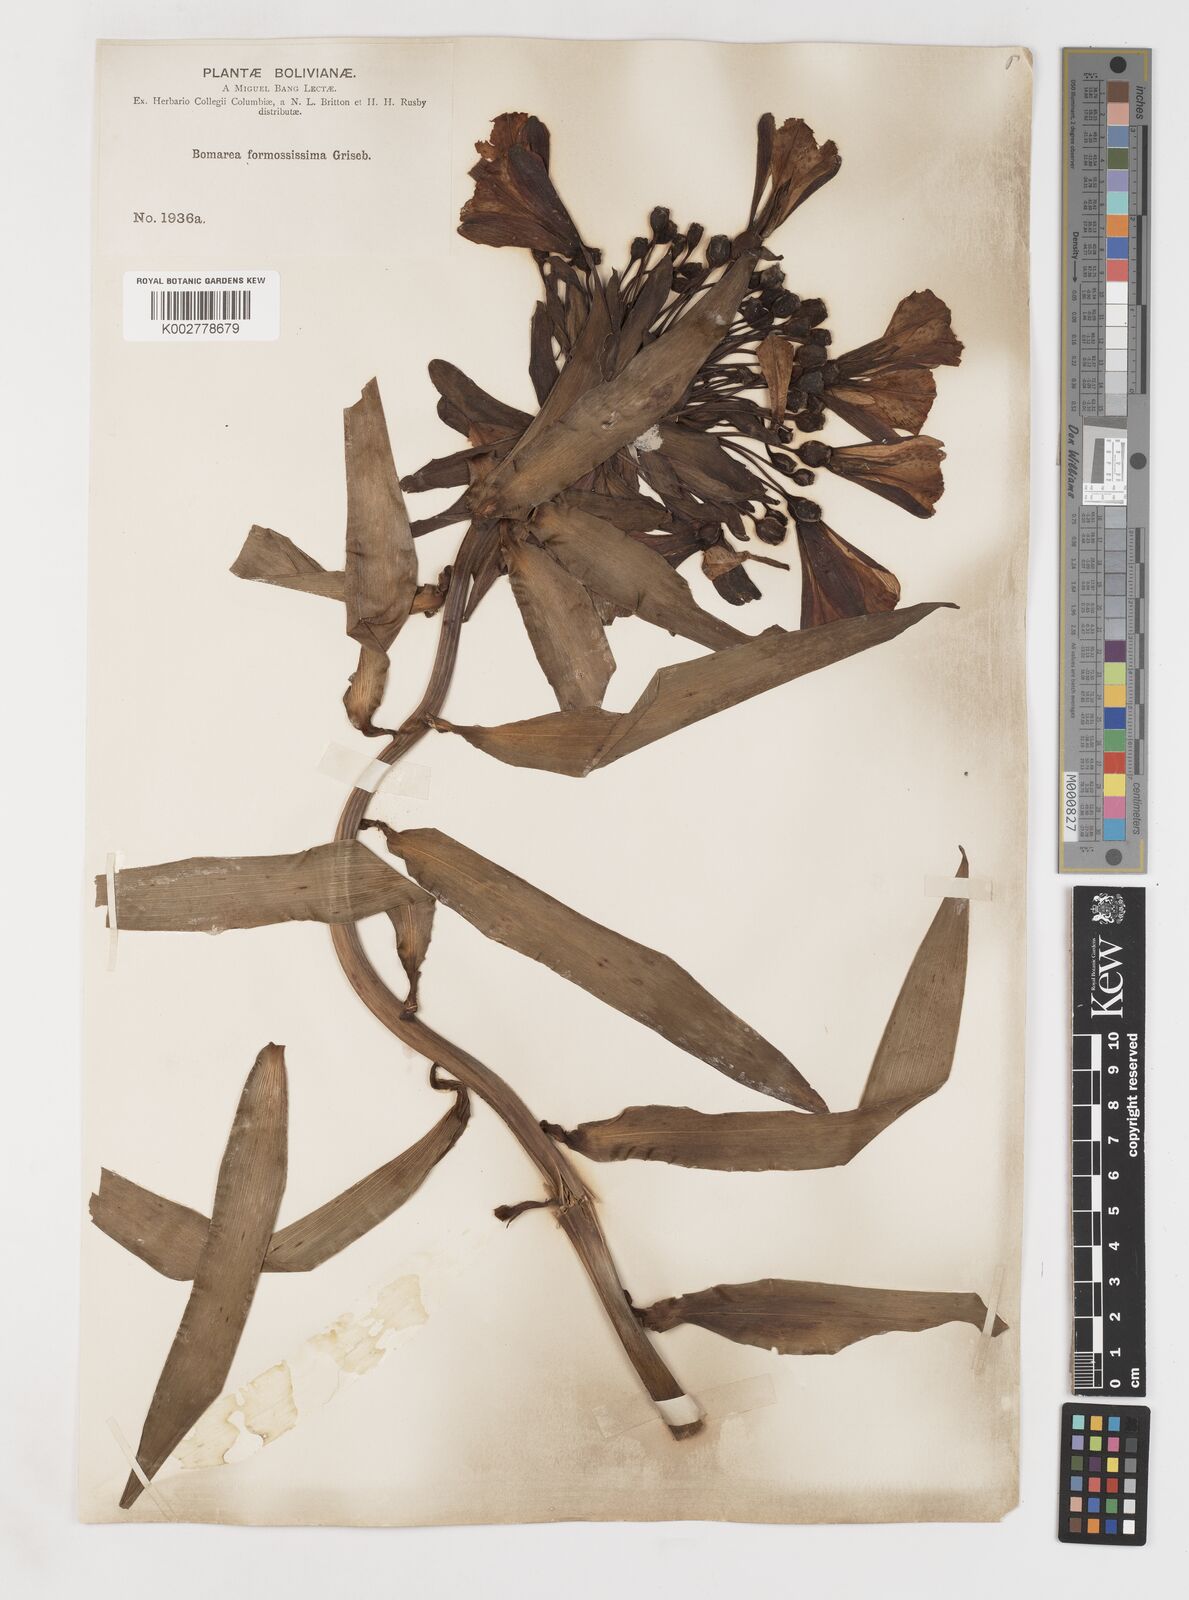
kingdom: Plantae
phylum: Tracheophyta
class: Liliopsida
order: Liliales
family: Alstroemeriaceae
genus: Bomarea
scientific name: Bomarea formosissima
